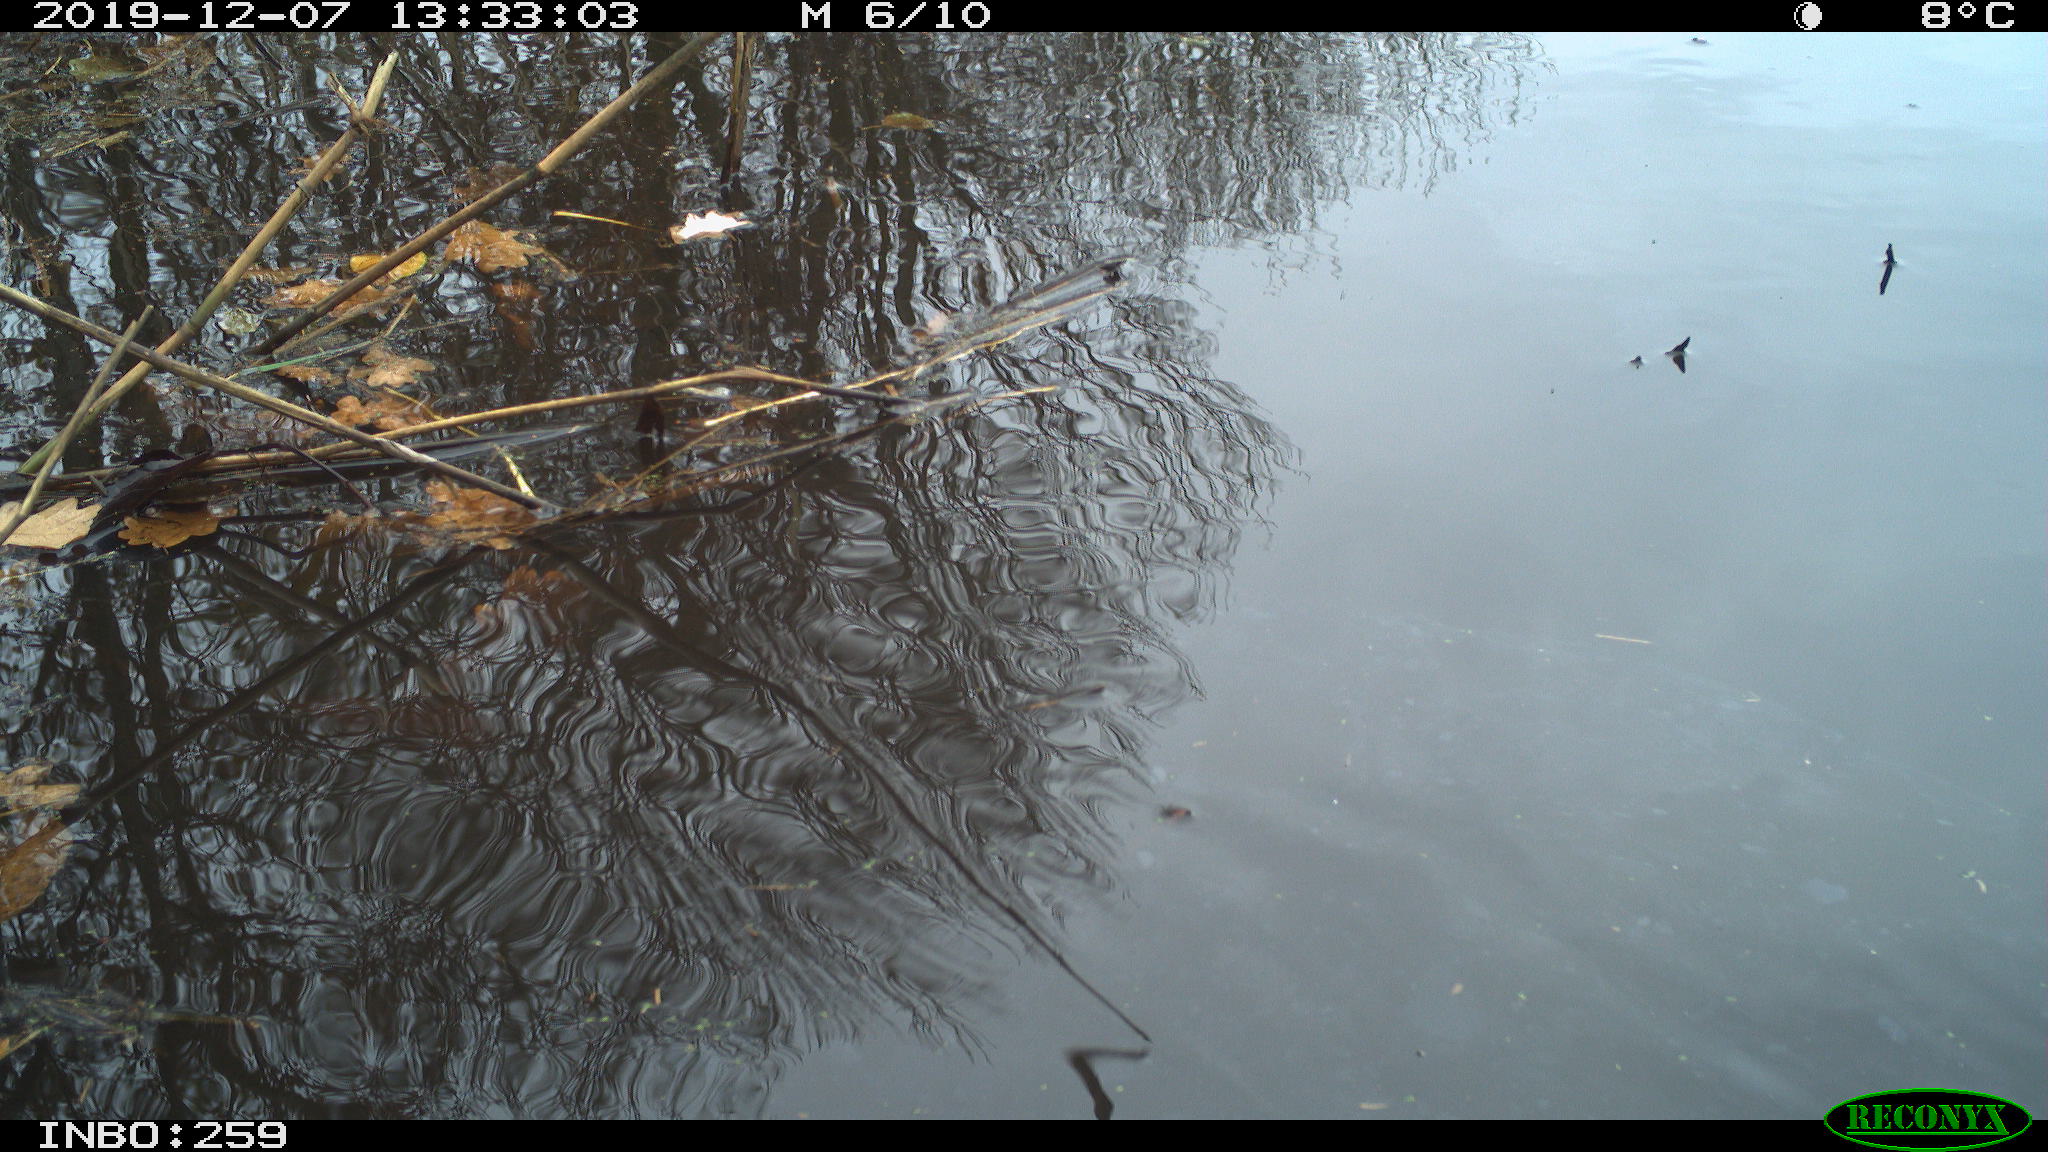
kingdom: Animalia
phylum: Chordata
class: Aves
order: Gruiformes
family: Rallidae
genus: Gallinula
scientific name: Gallinula chloropus
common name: Common moorhen
